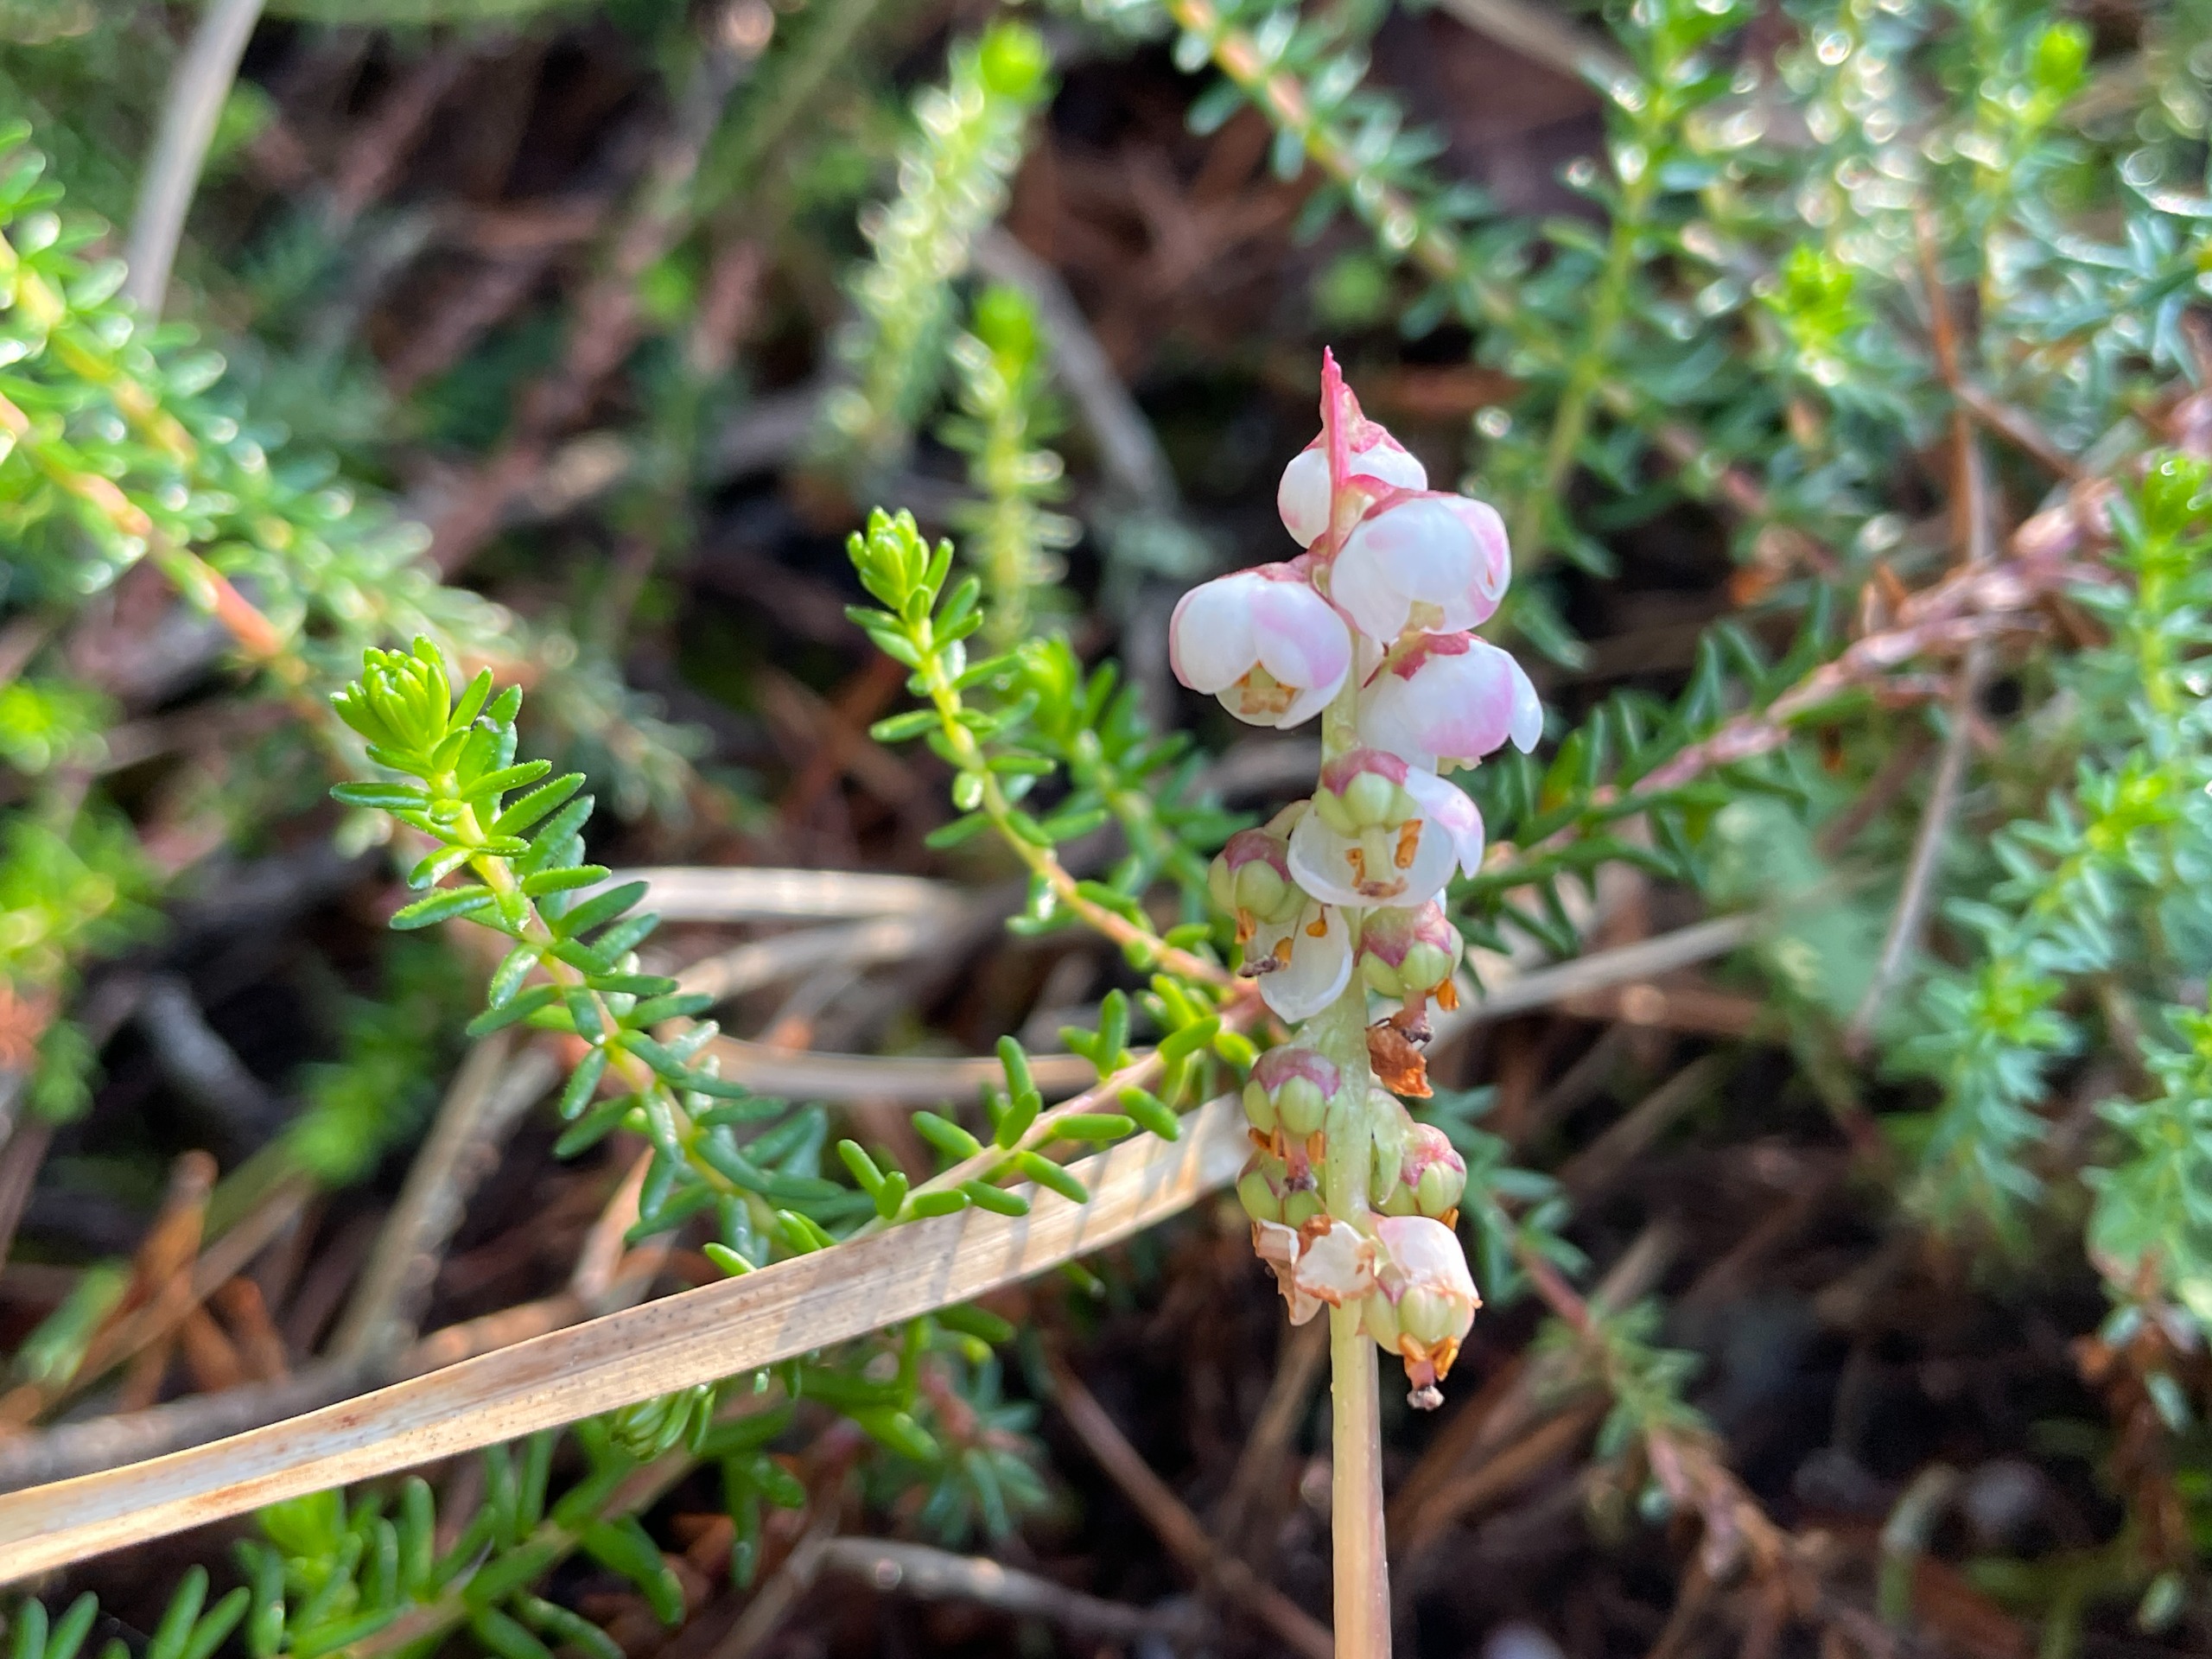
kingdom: Plantae
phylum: Tracheophyta
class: Magnoliopsida
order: Ericales
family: Ericaceae
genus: Pyrola
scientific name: Pyrola minor
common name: Liden vintergrøn
